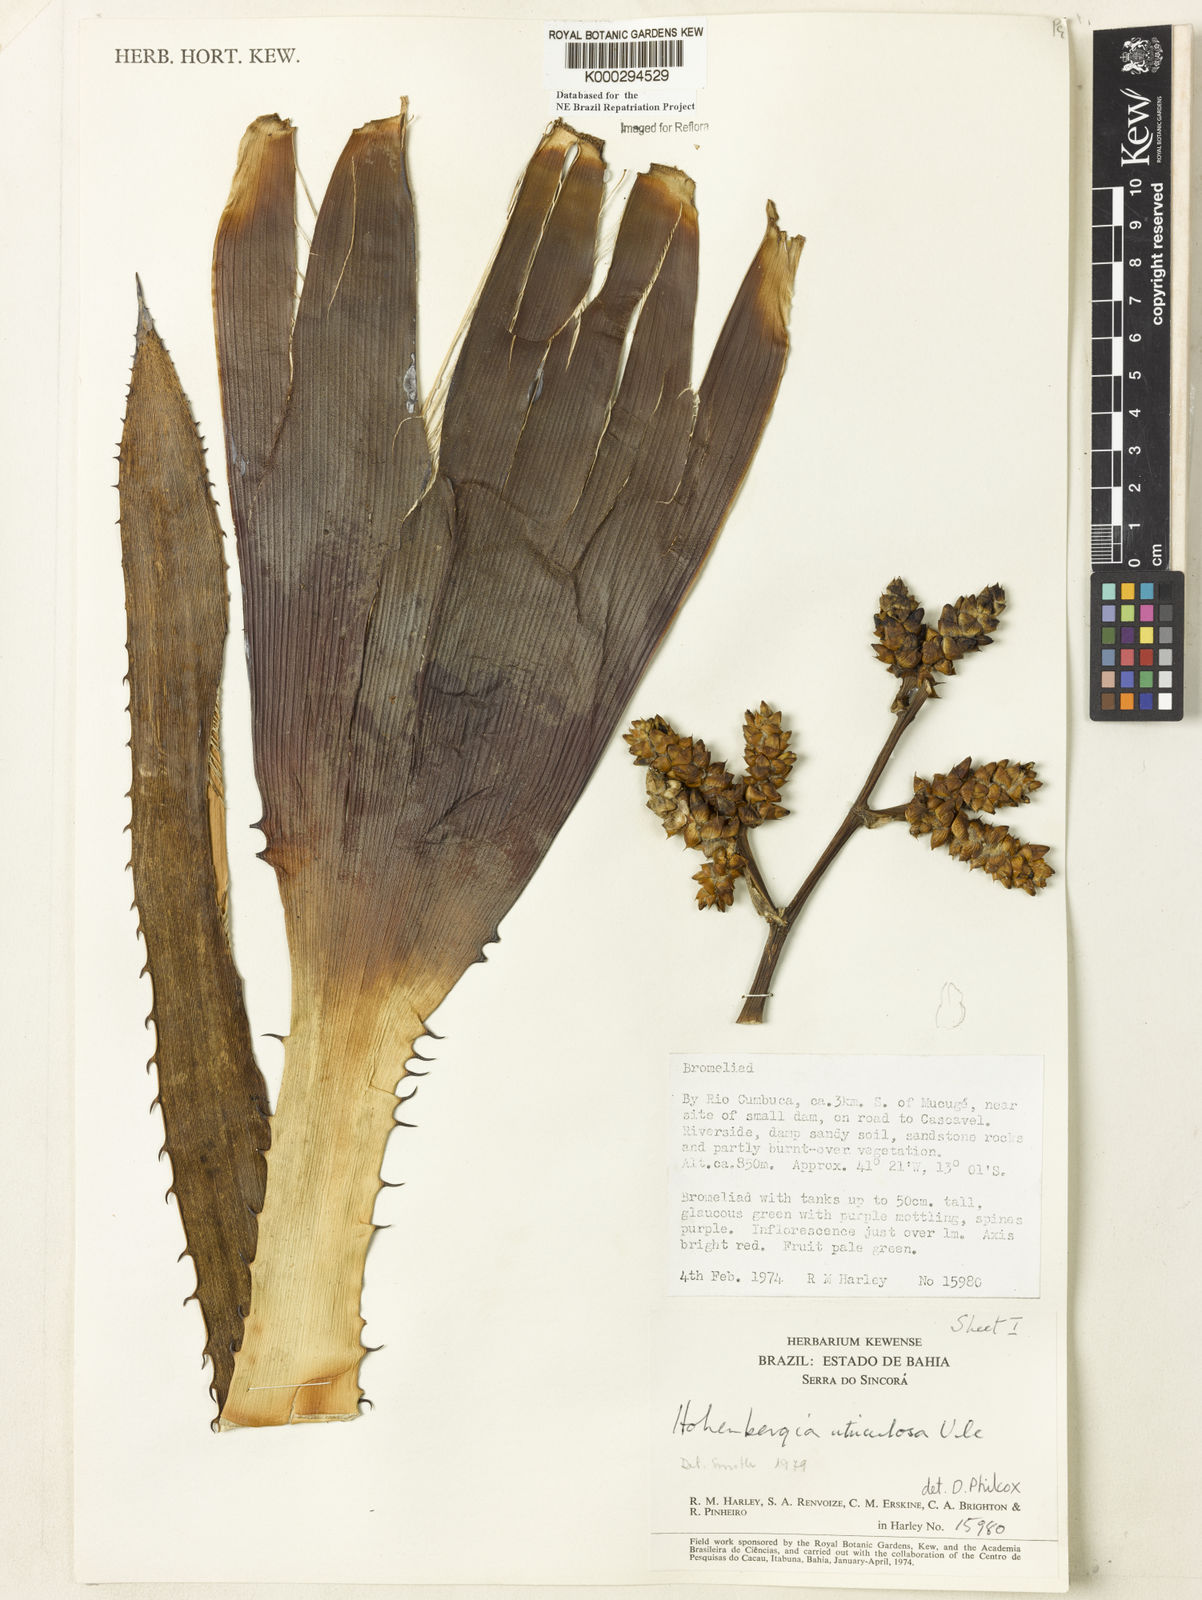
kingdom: Plantae
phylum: Tracheophyta
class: Liliopsida
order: Poales
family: Bromeliaceae
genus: Hohenbergia
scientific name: Hohenbergia utriculosa
